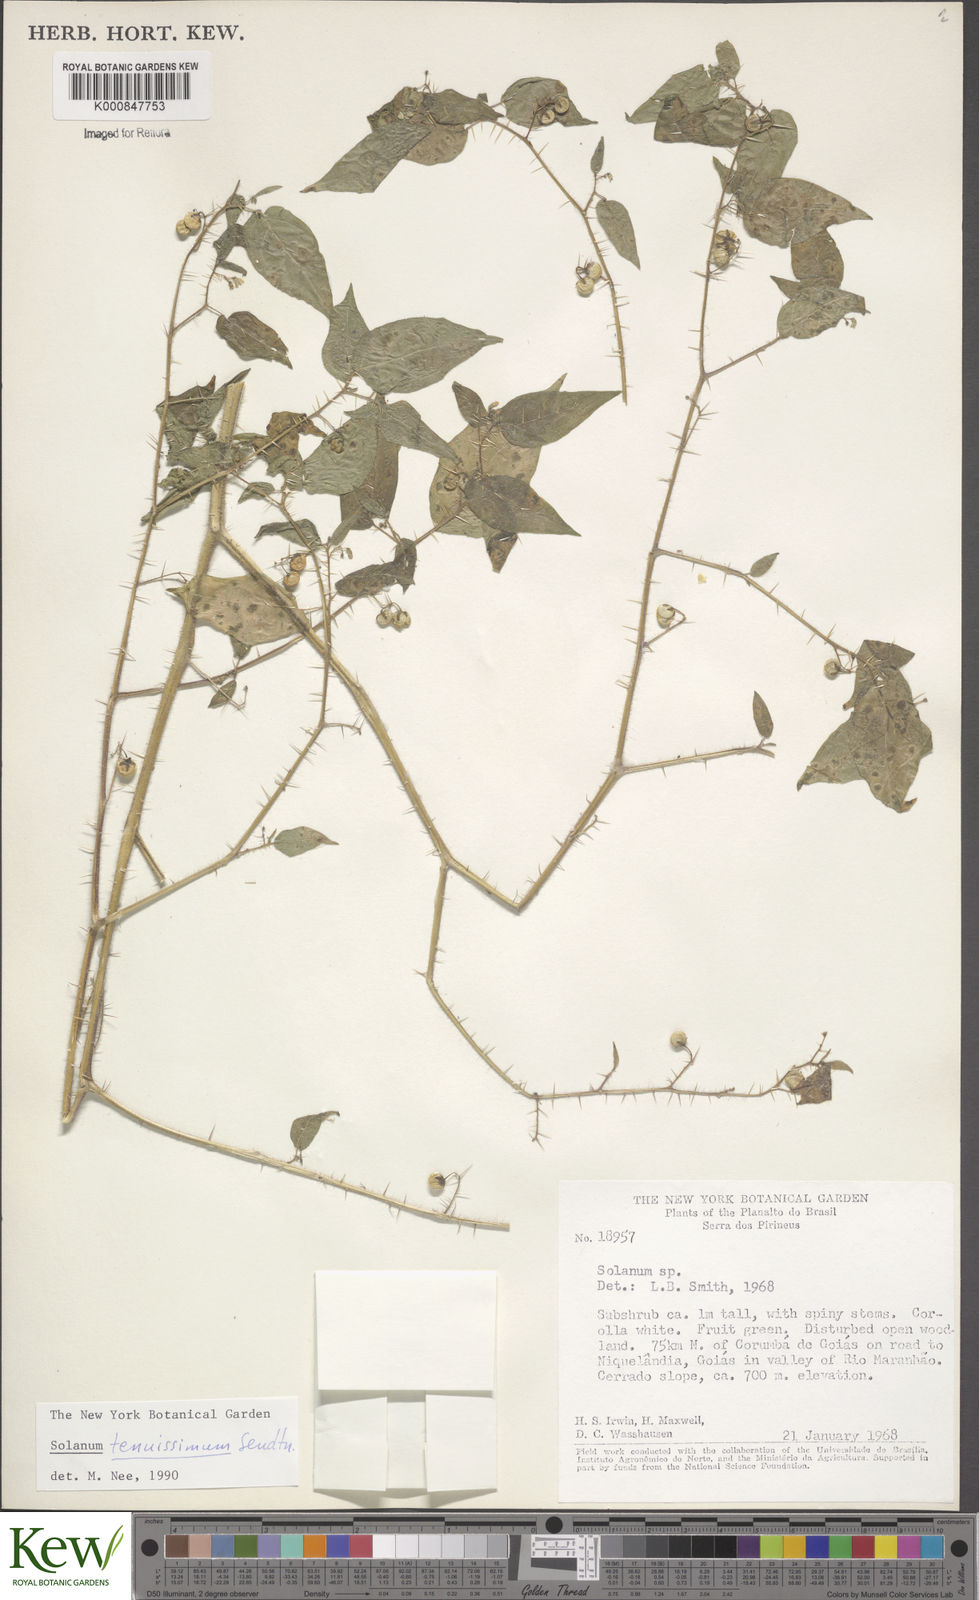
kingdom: Plantae
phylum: Tracheophyta
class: Magnoliopsida
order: Solanales
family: Solanaceae
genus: Solanum
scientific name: Solanum tenuissimum
